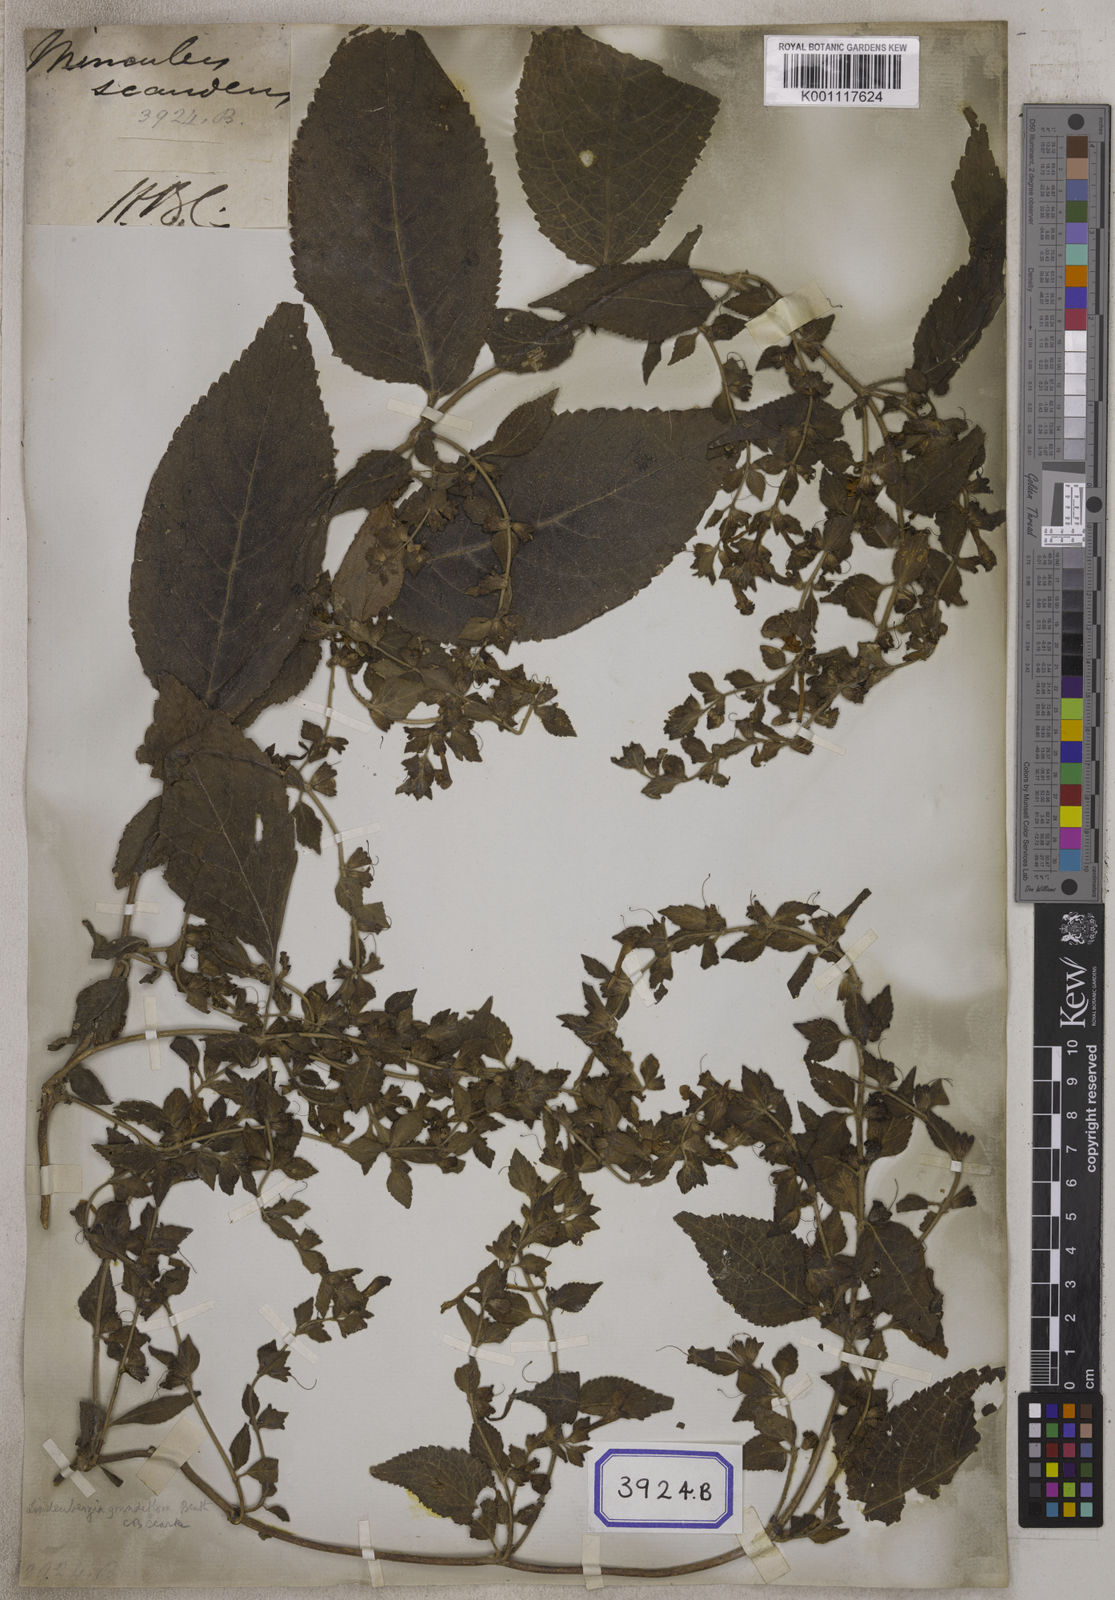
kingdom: Plantae
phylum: Tracheophyta
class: Magnoliopsida
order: Lamiales
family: Orobanchaceae
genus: Lindenbergia
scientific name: Lindenbergia grandiflora
